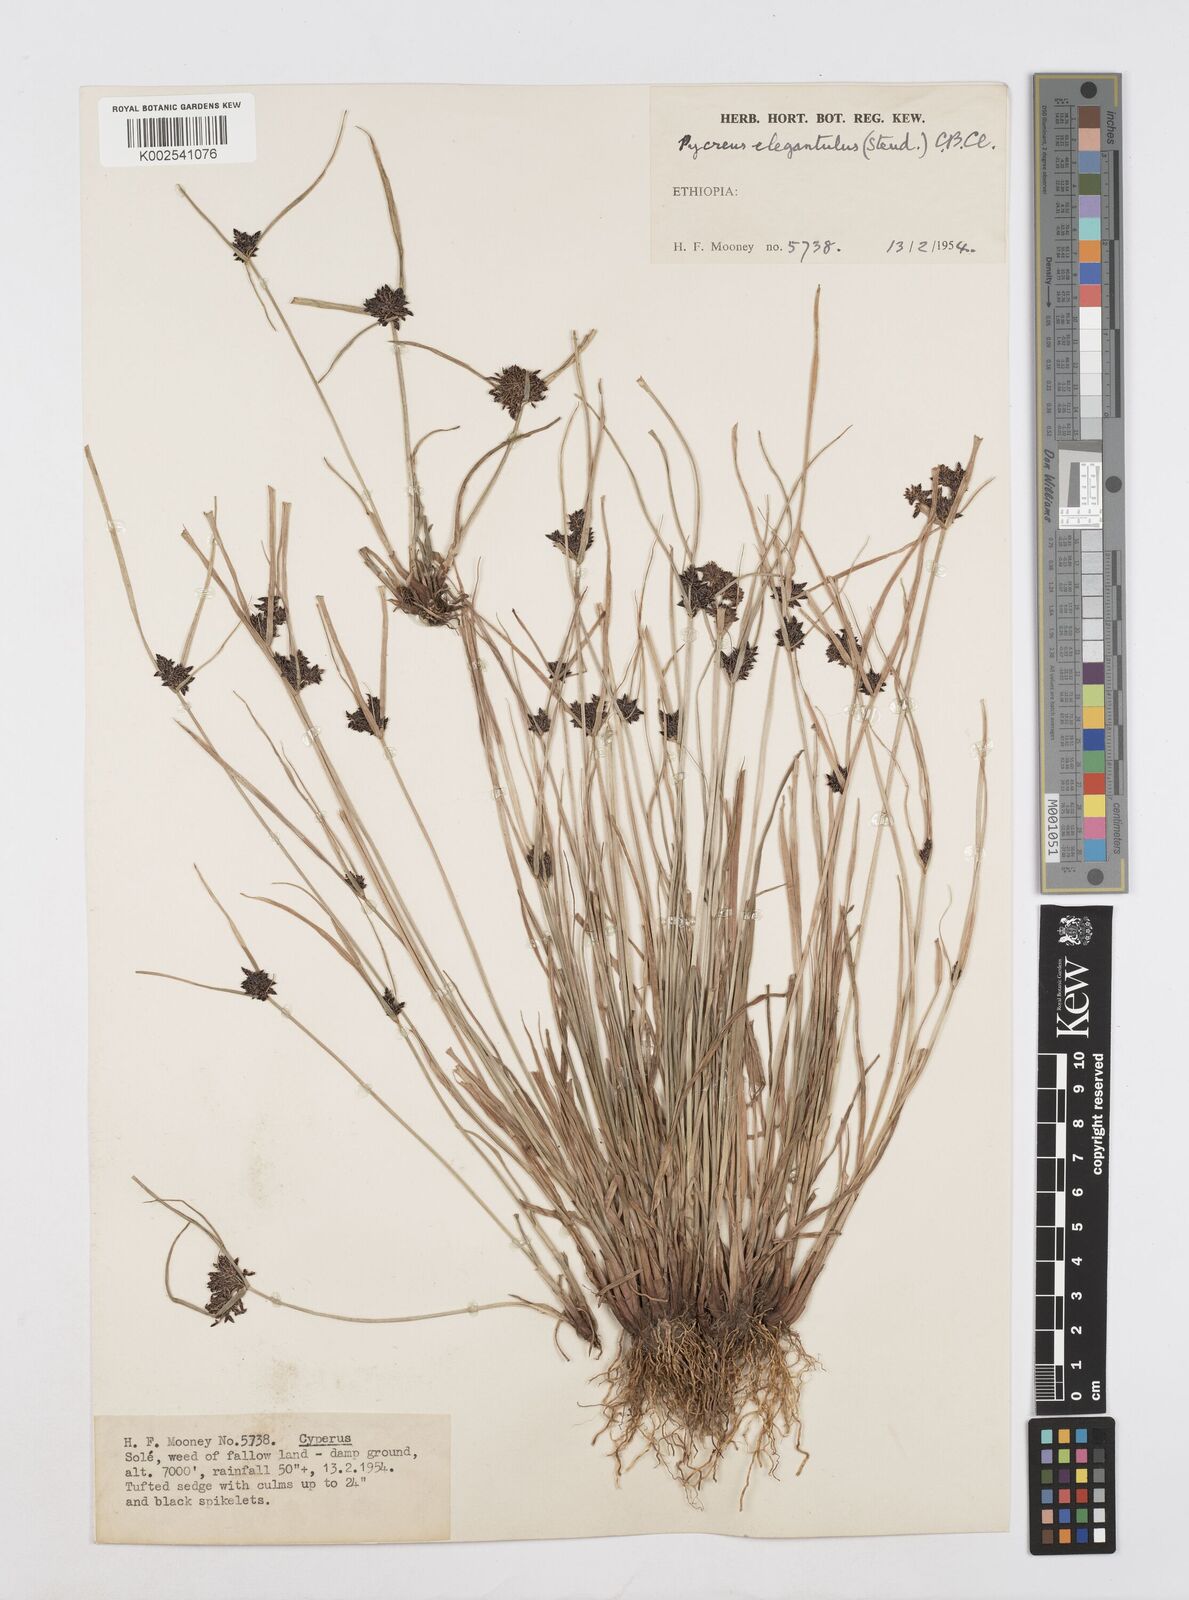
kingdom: Plantae
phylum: Tracheophyta
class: Liliopsida
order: Poales
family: Cyperaceae
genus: Cyperus
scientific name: Cyperus elegantulus
